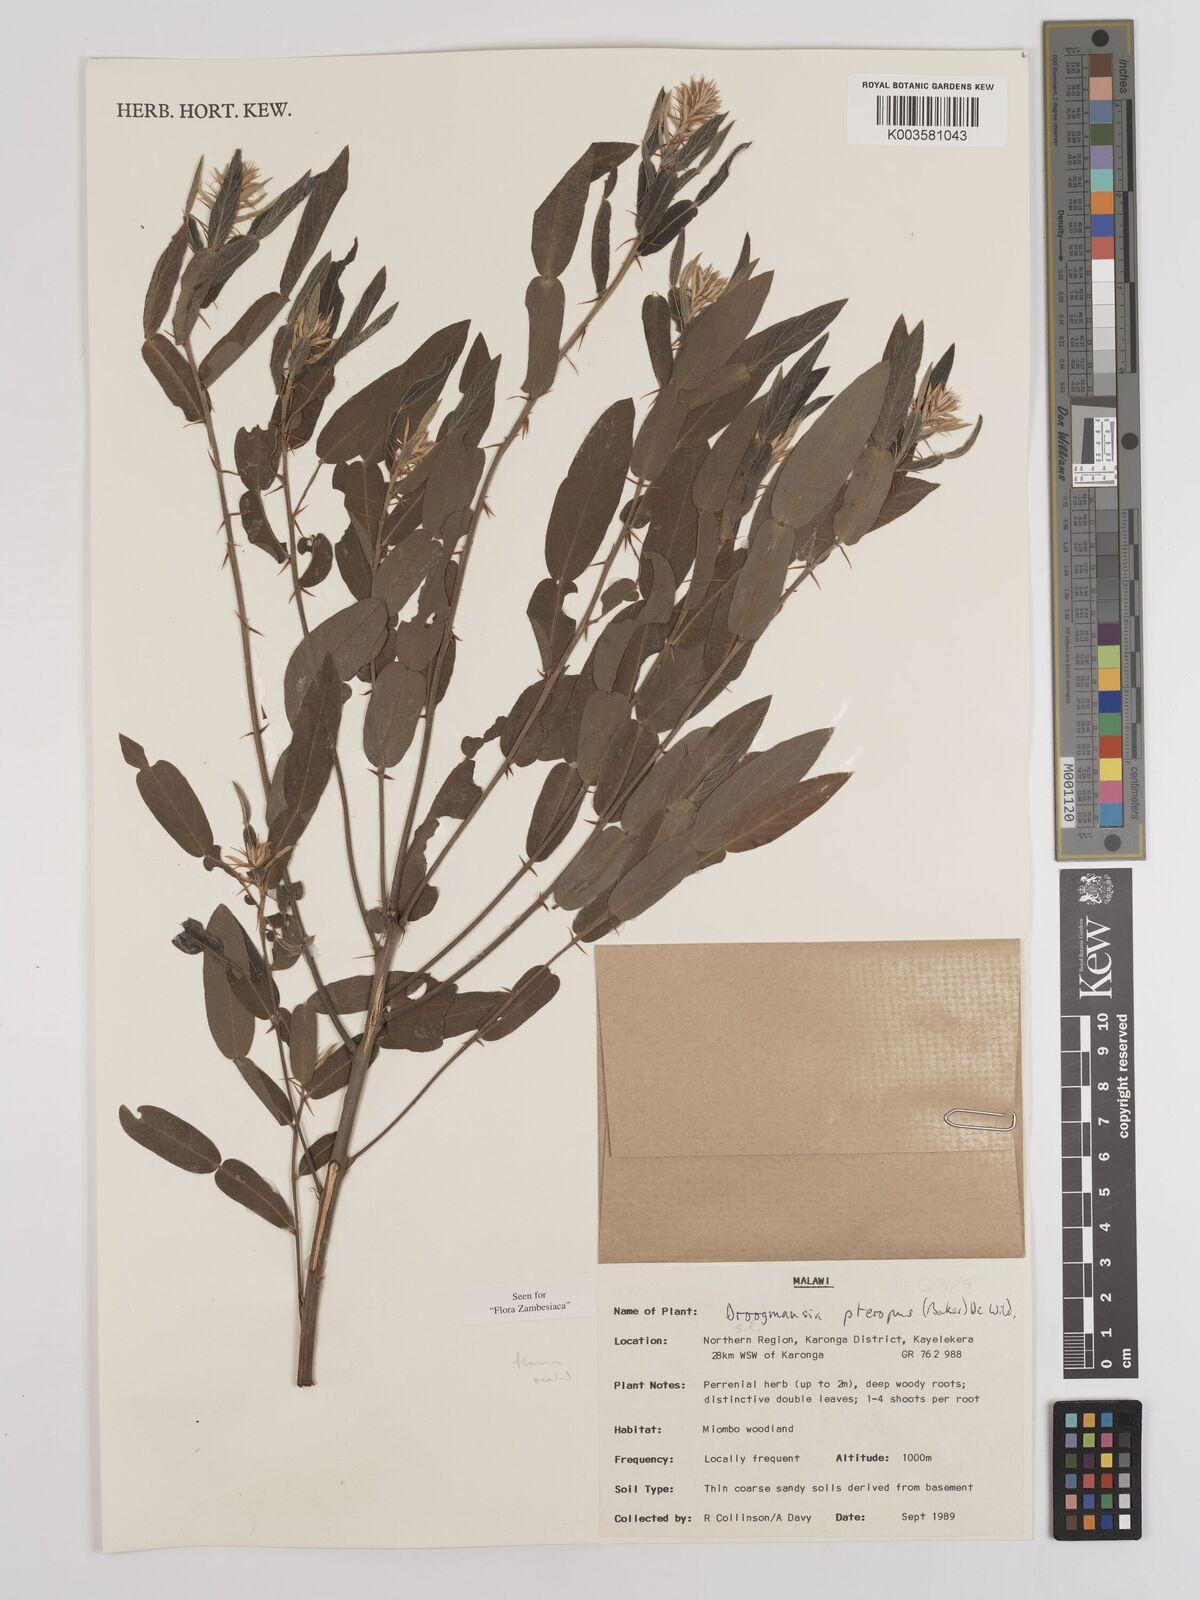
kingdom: Plantae
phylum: Tracheophyta
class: Magnoliopsida
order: Fabales
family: Fabaceae
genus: Droogmansia
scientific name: Droogmansia pteropus
